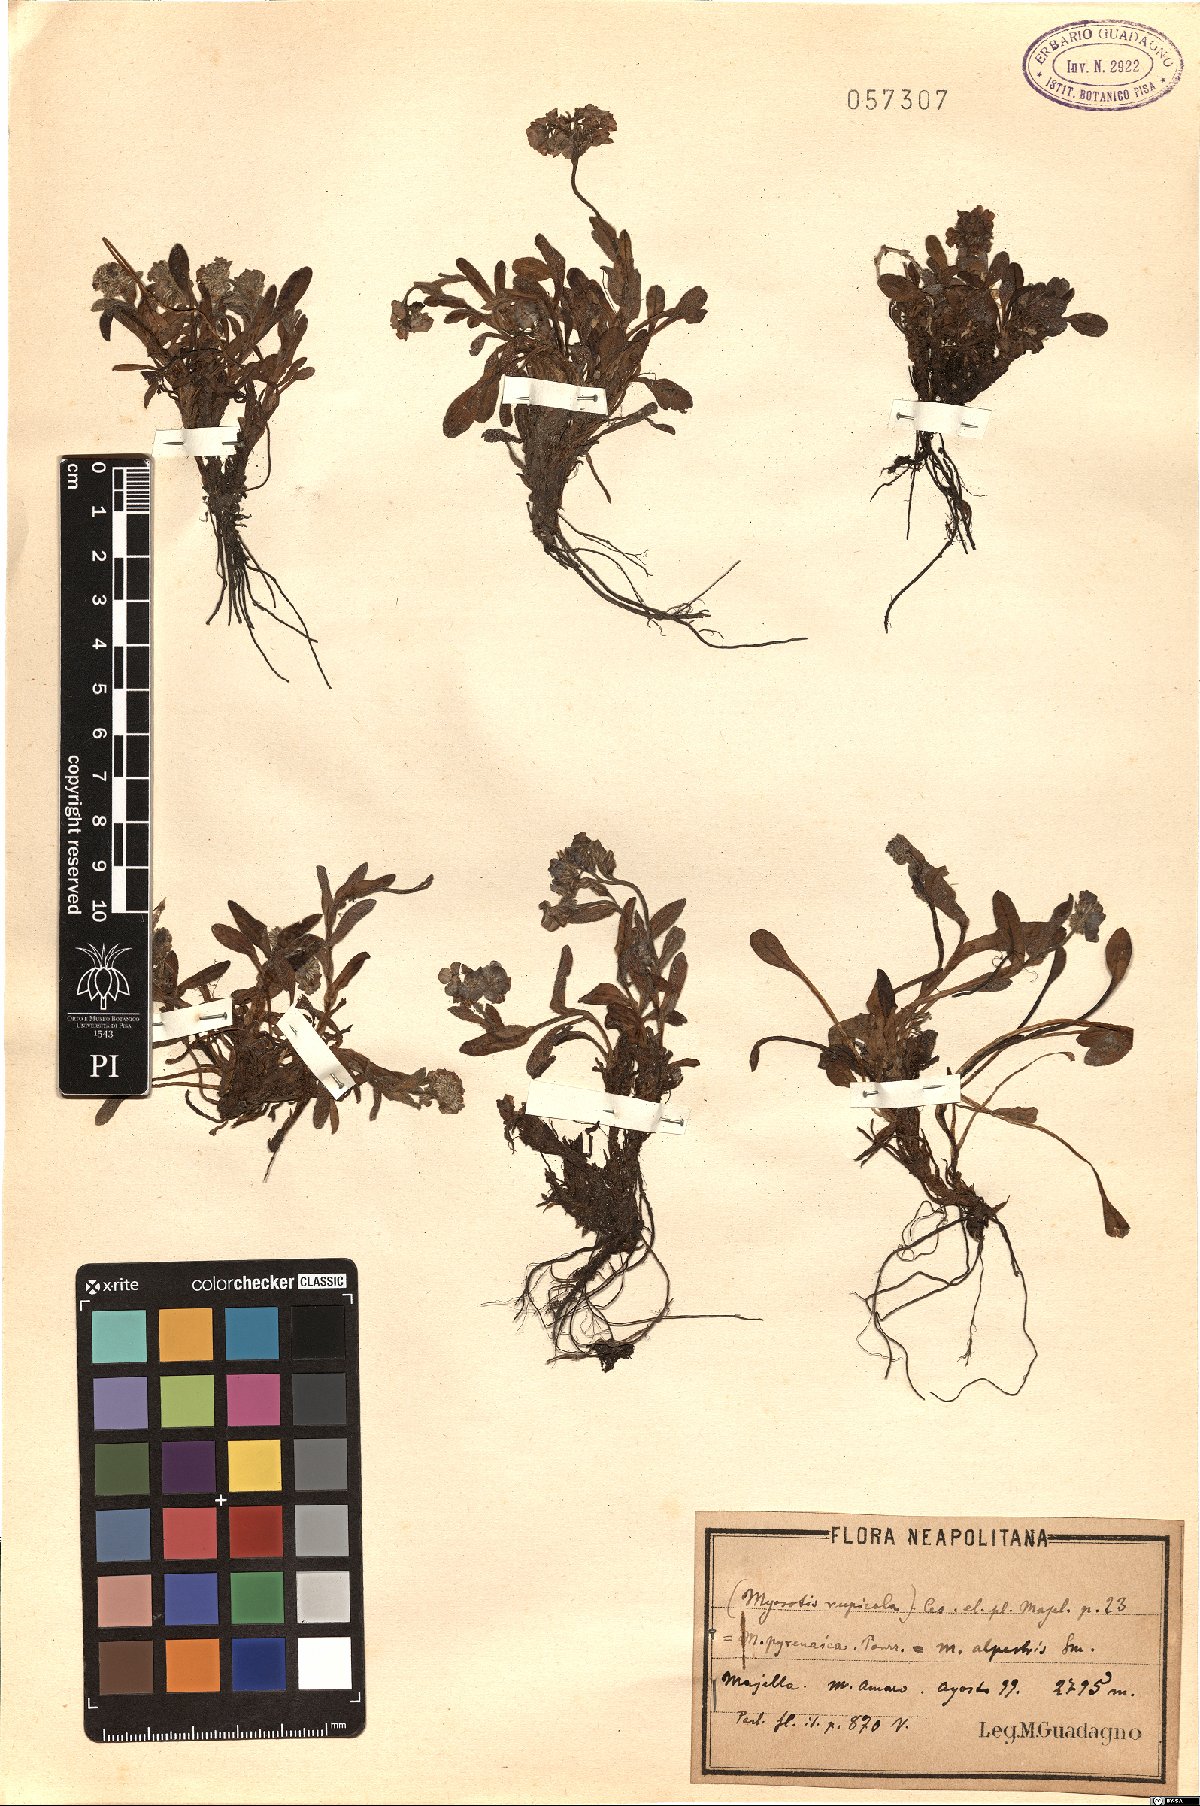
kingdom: Plantae
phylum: Tracheophyta
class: Magnoliopsida
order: Boraginales
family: Boraginaceae
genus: Myosotis
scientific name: Myosotis alpestris
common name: Alpine forget-me-not
